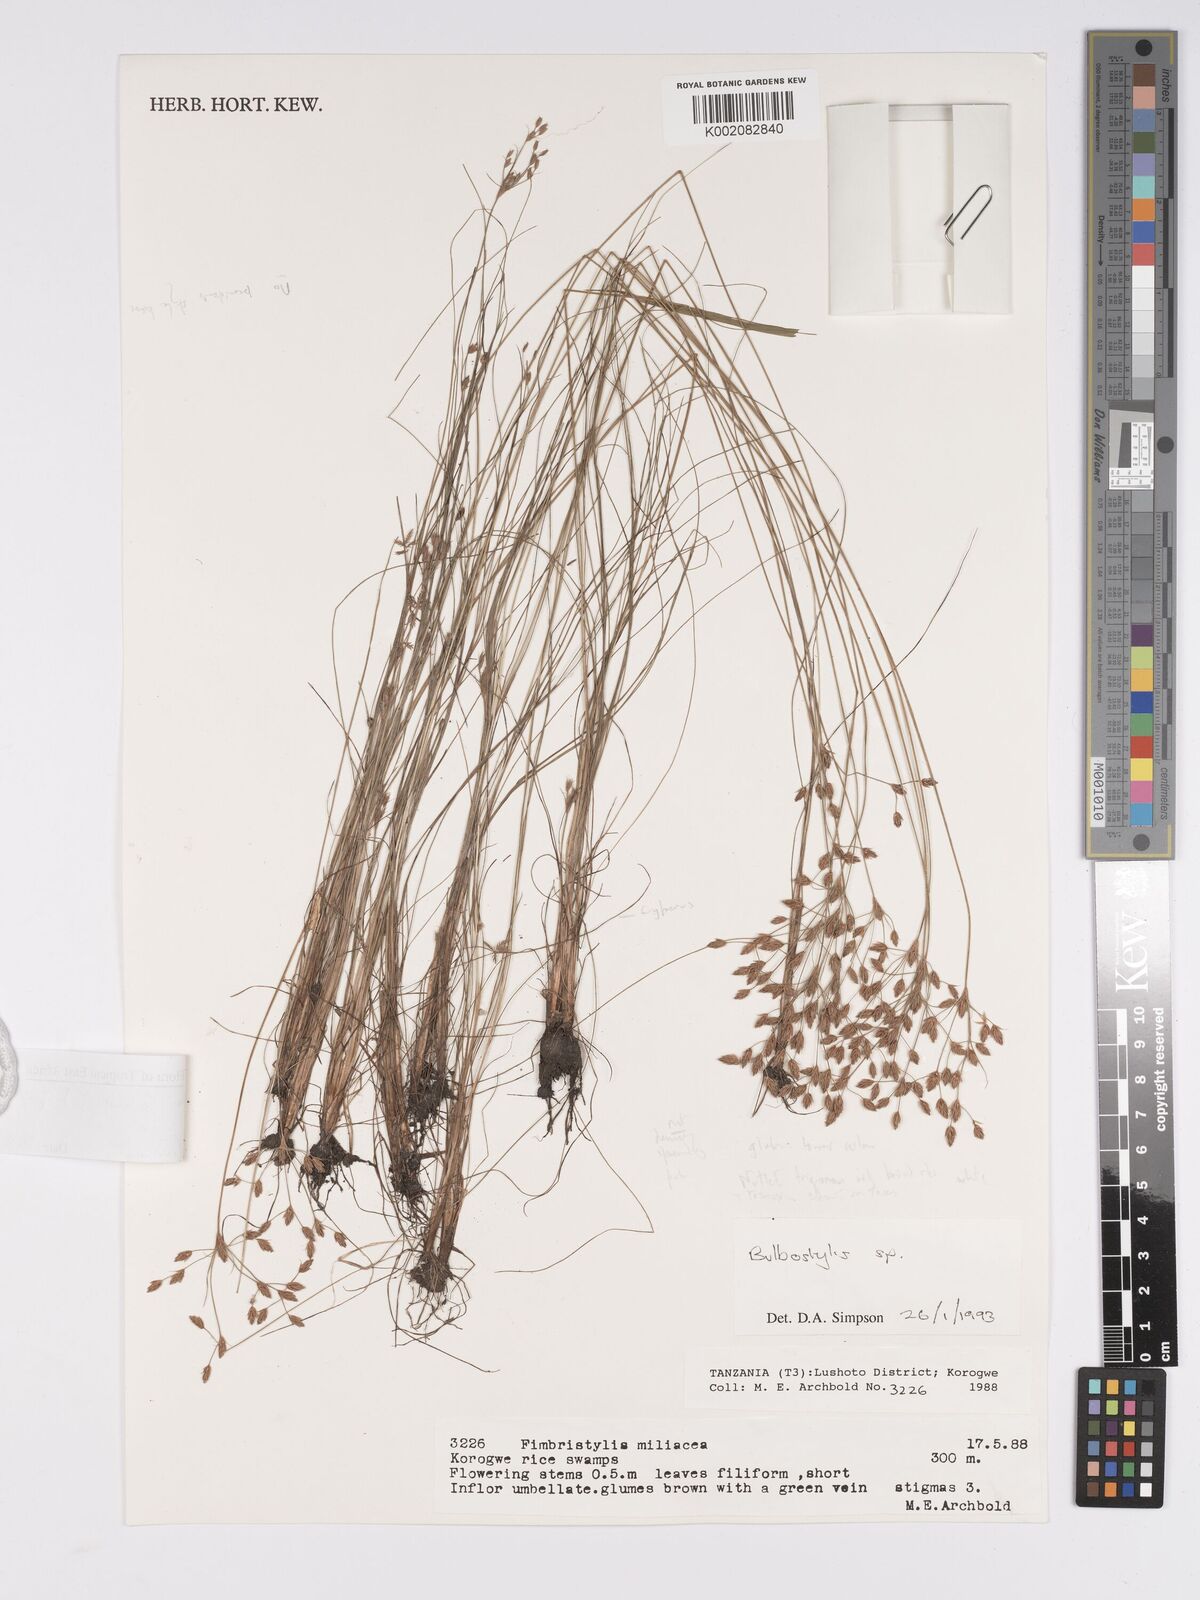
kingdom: Plantae
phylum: Tracheophyta
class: Liliopsida
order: Poales
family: Cyperaceae
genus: Bulbostylis
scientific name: Bulbostylis hispidula
